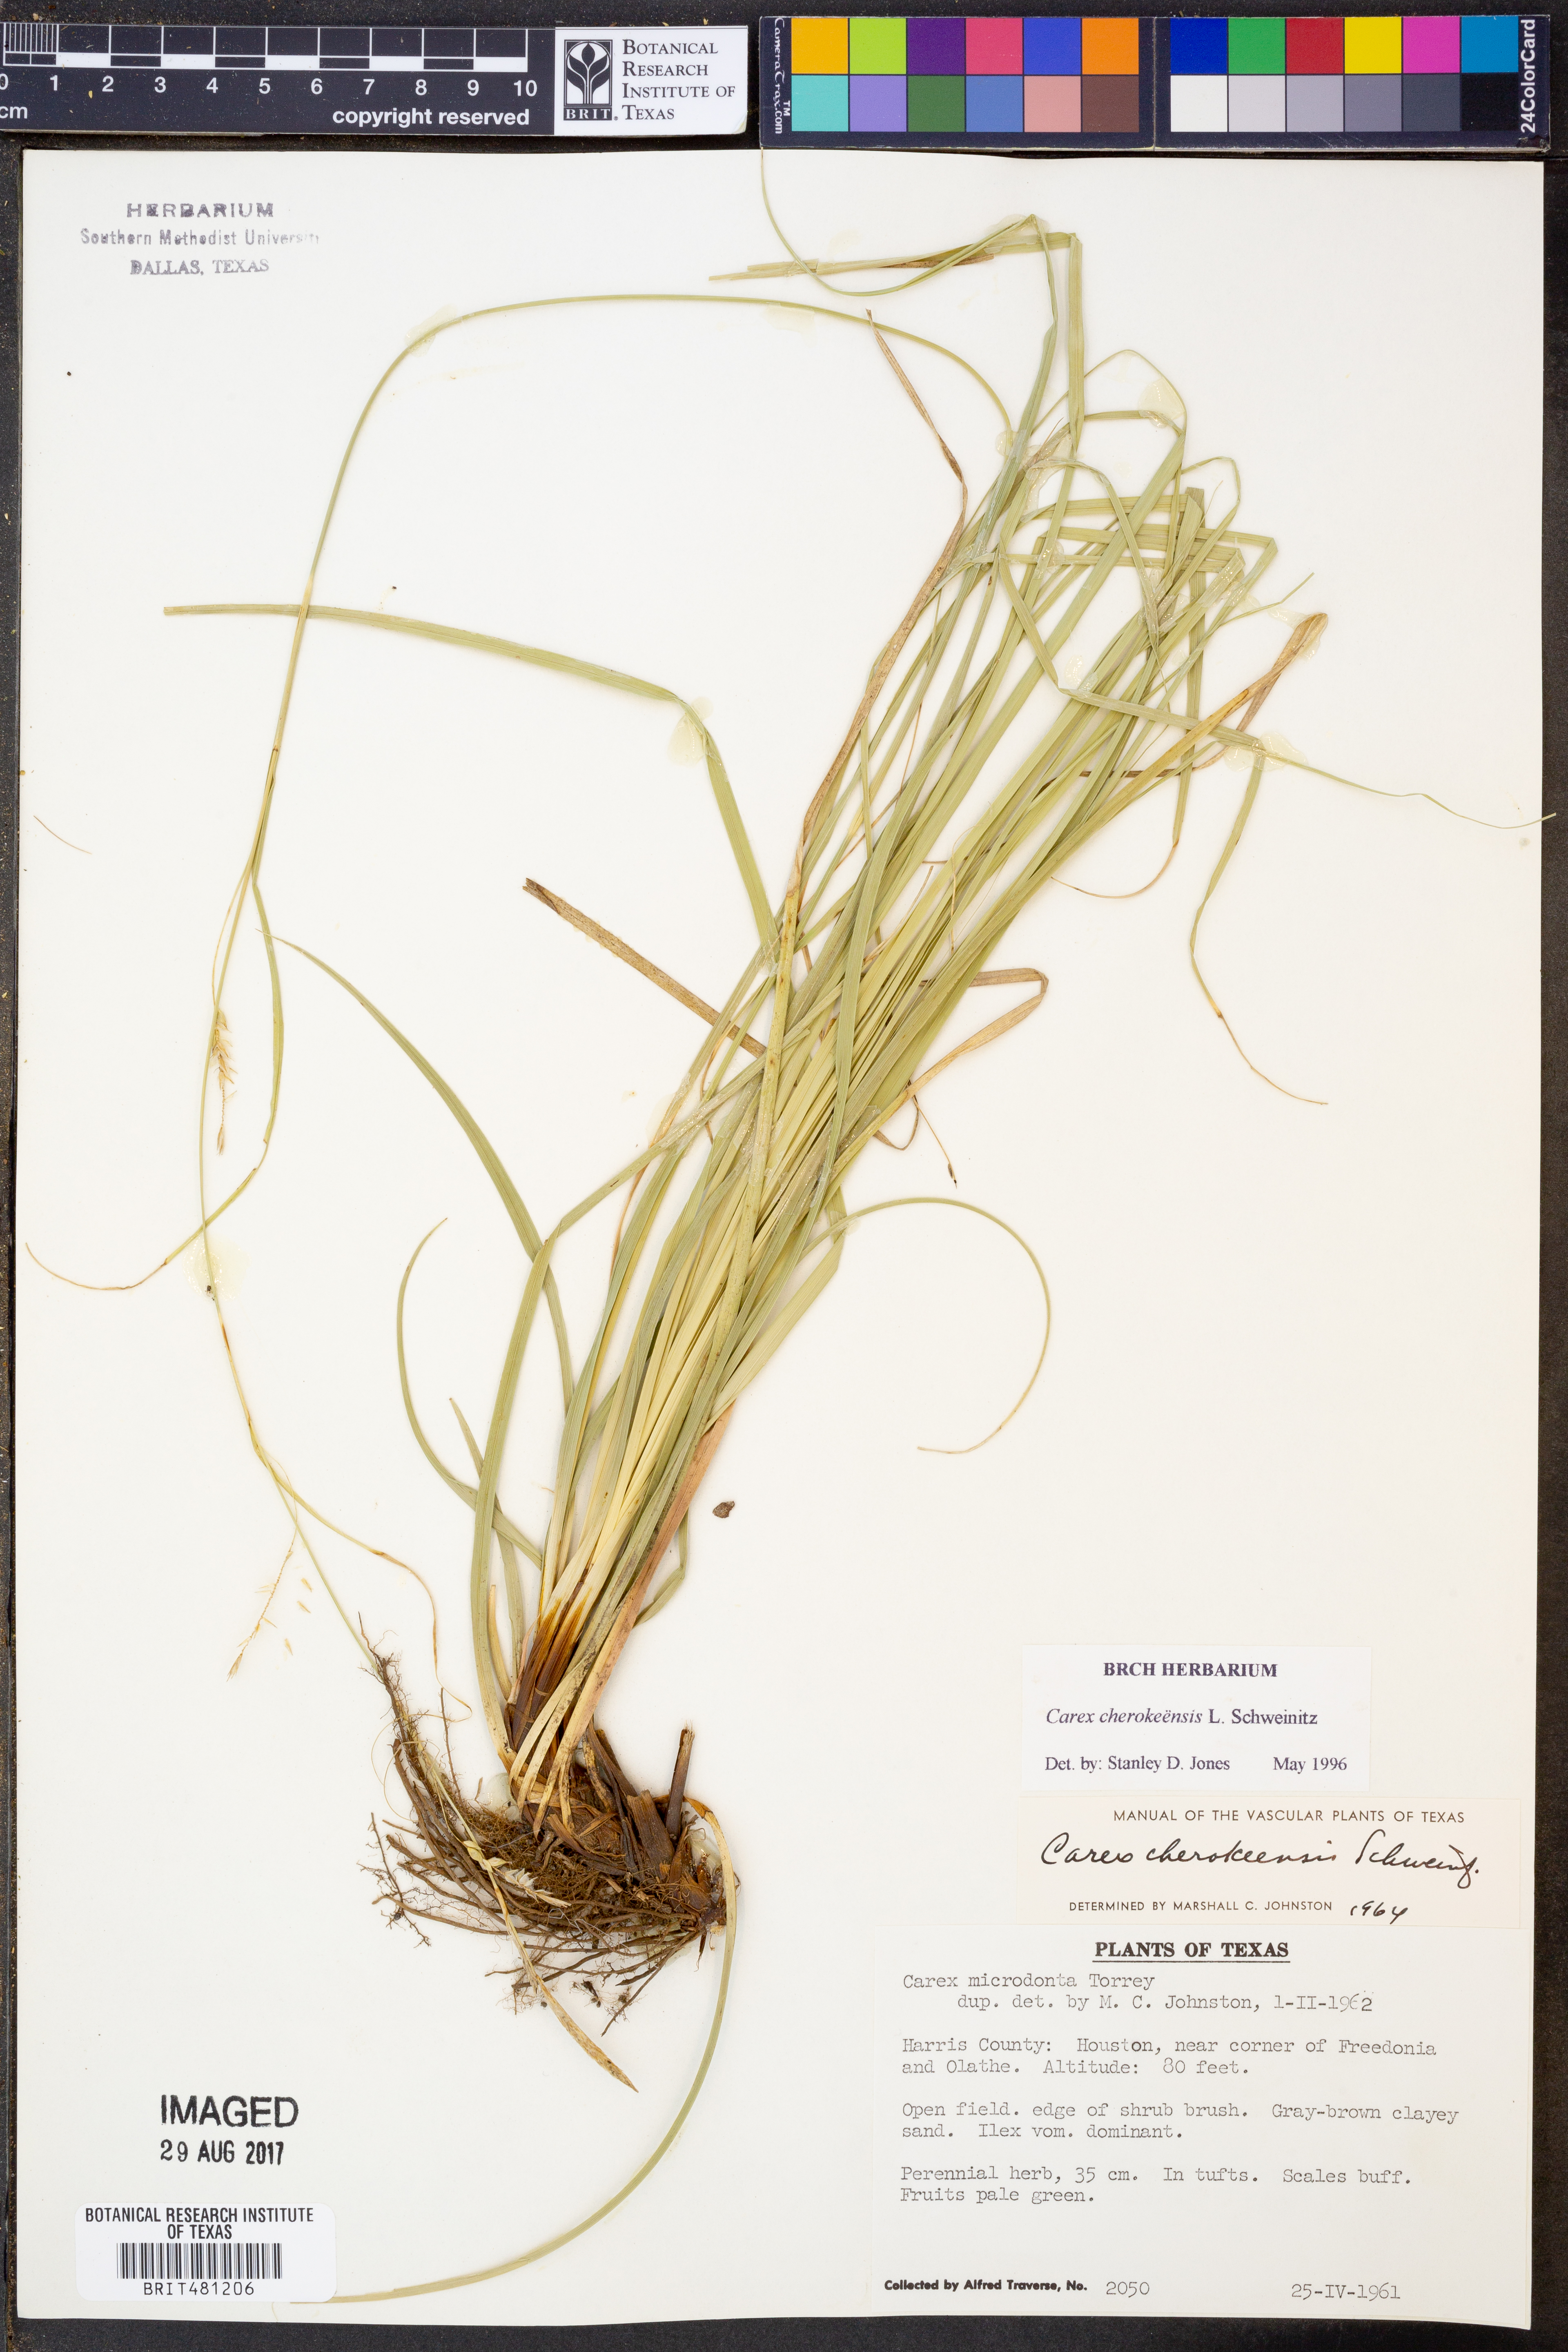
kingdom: Plantae
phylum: Tracheophyta
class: Liliopsida
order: Poales
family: Cyperaceae
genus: Carex
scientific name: Carex cherokeensis
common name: Cherokee sedge
